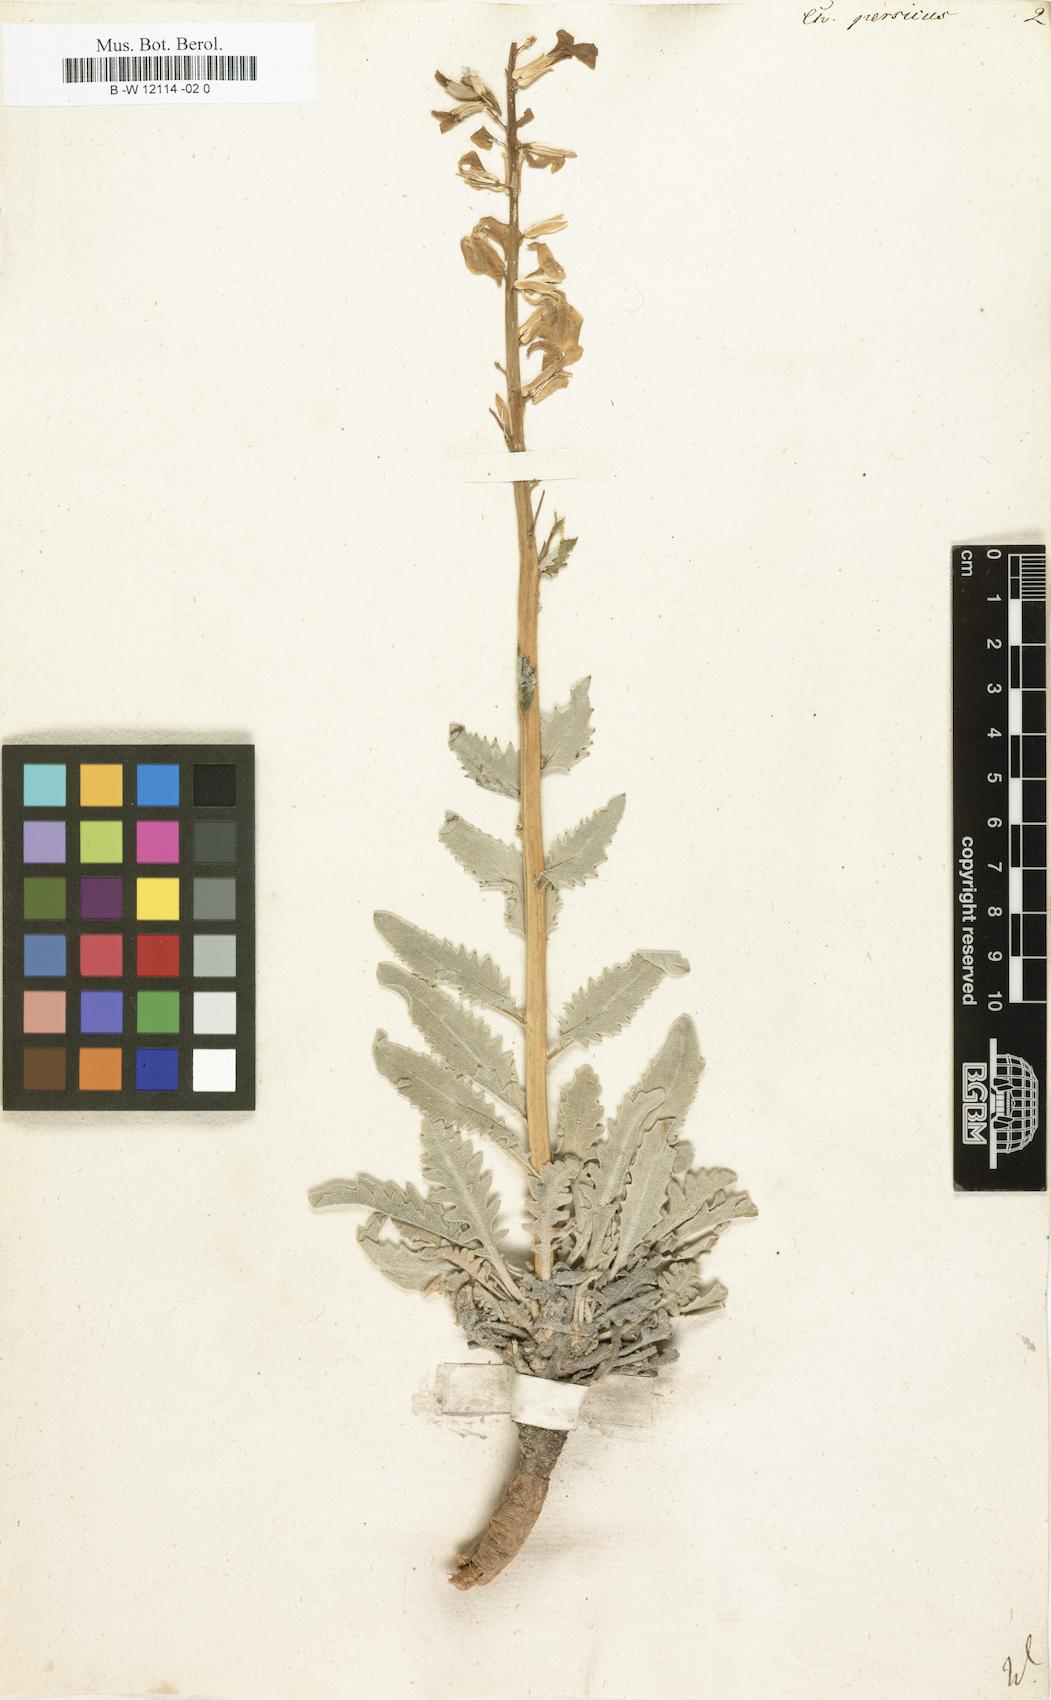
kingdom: Plantae
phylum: Tracheophyta
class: Magnoliopsida
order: Brassicales
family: Brassicaceae
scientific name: Brassicaceae
